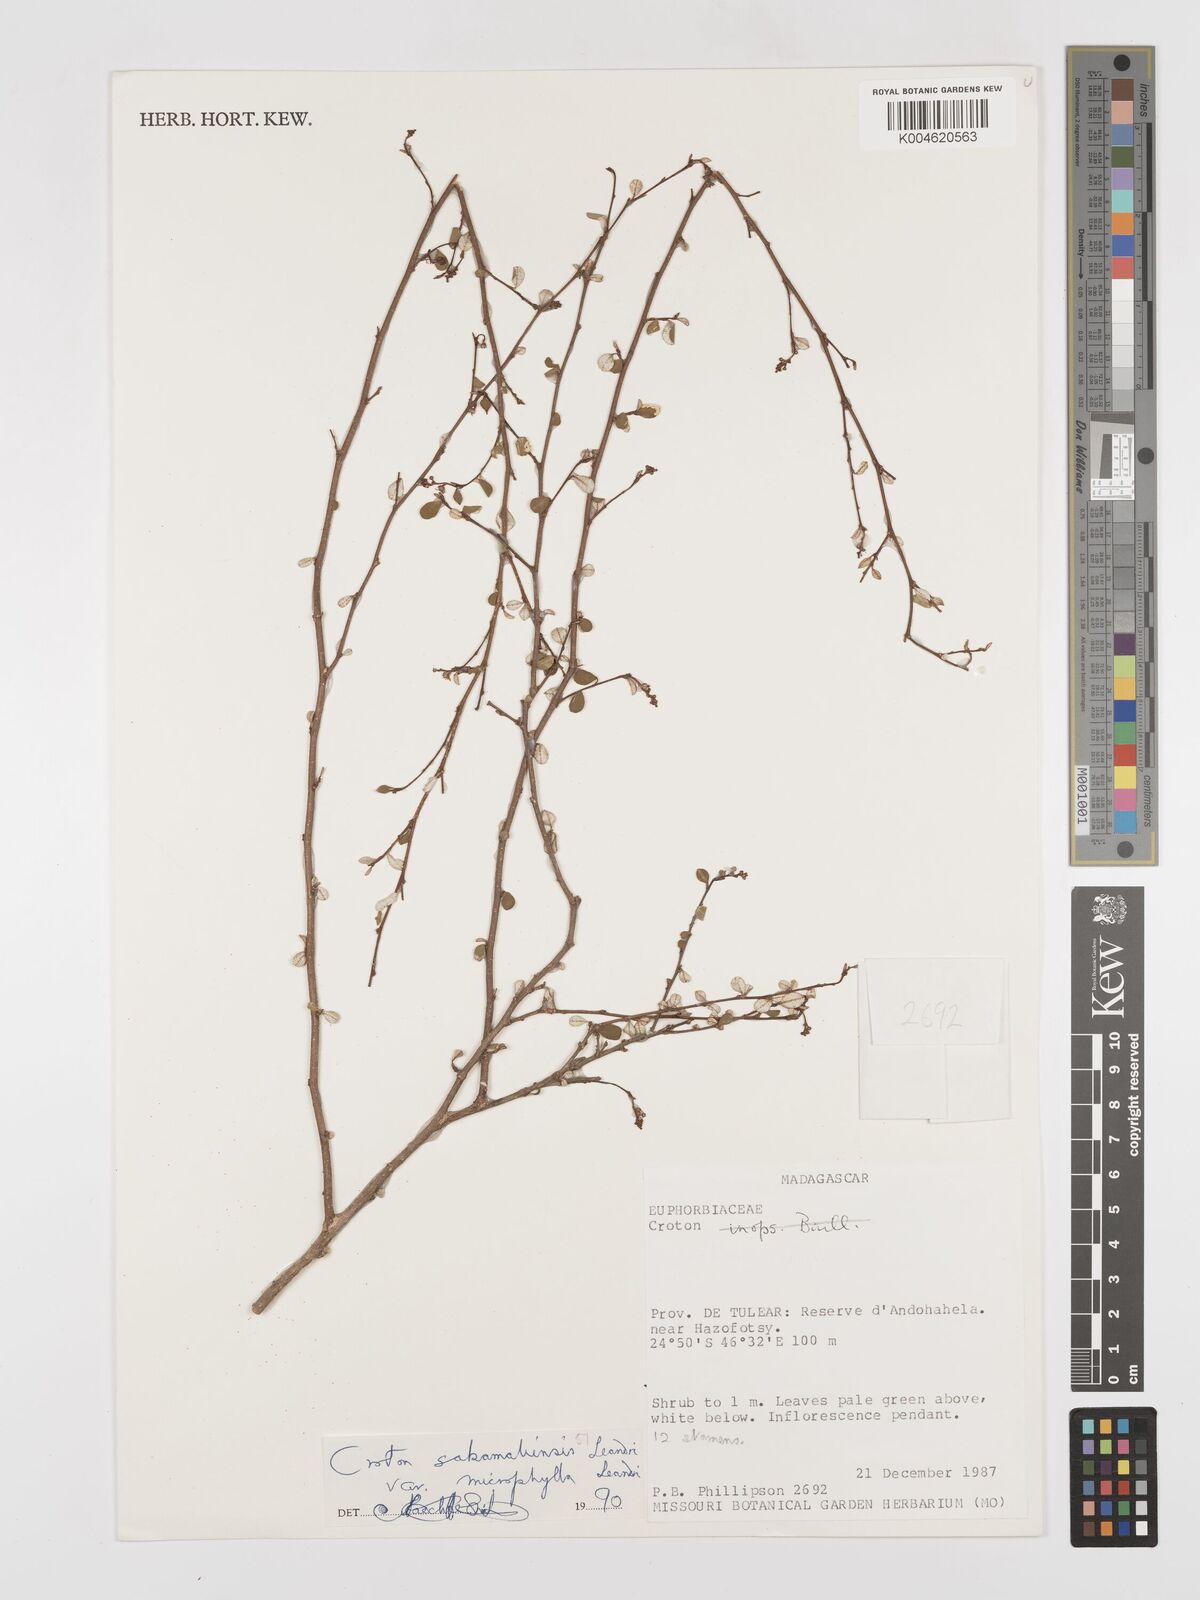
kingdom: Plantae
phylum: Tracheophyta
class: Magnoliopsida
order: Malpighiales
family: Euphorbiaceae
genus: Croton
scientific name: Croton sakamaliensis
